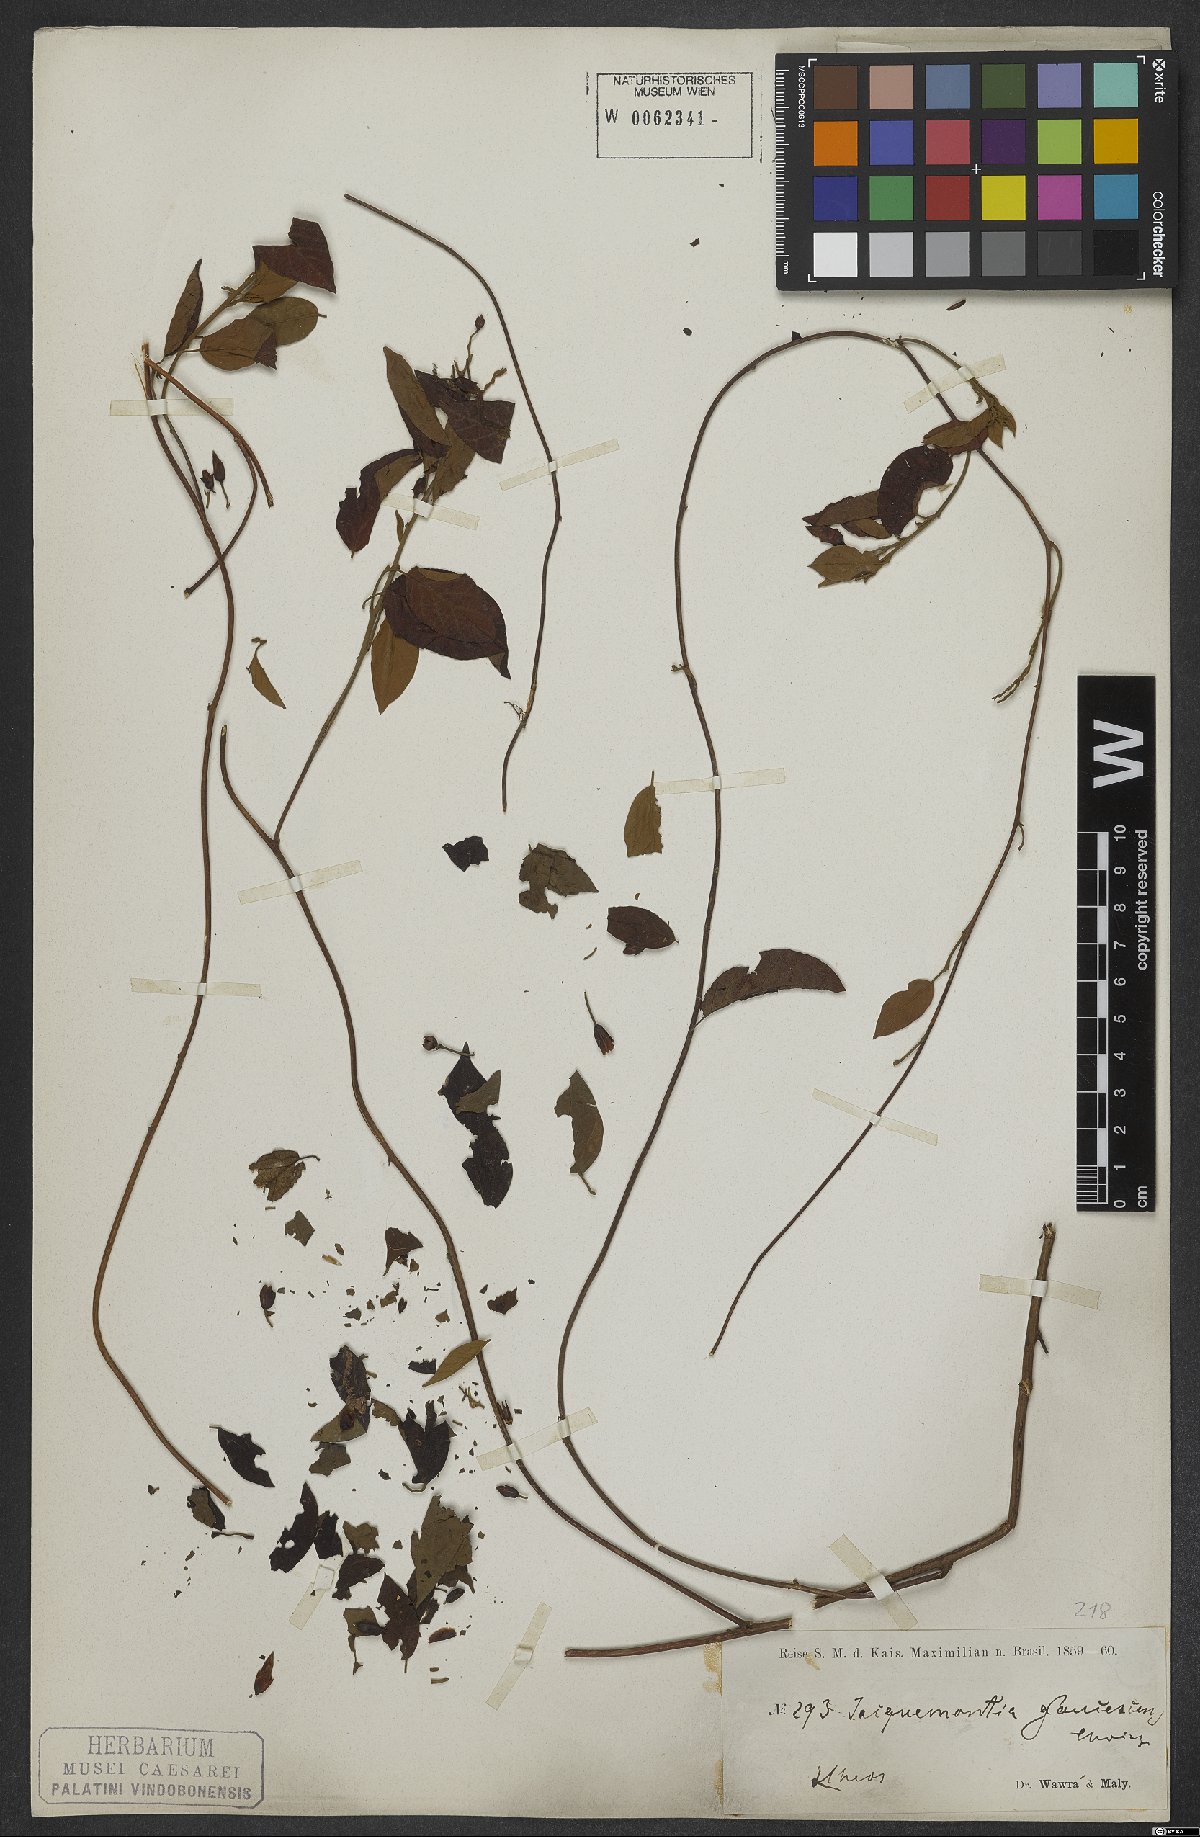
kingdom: Plantae
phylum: Tracheophyta
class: Magnoliopsida
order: Solanales
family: Convolvulaceae
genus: Jacquemontia
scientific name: Jacquemontia glaucescens
